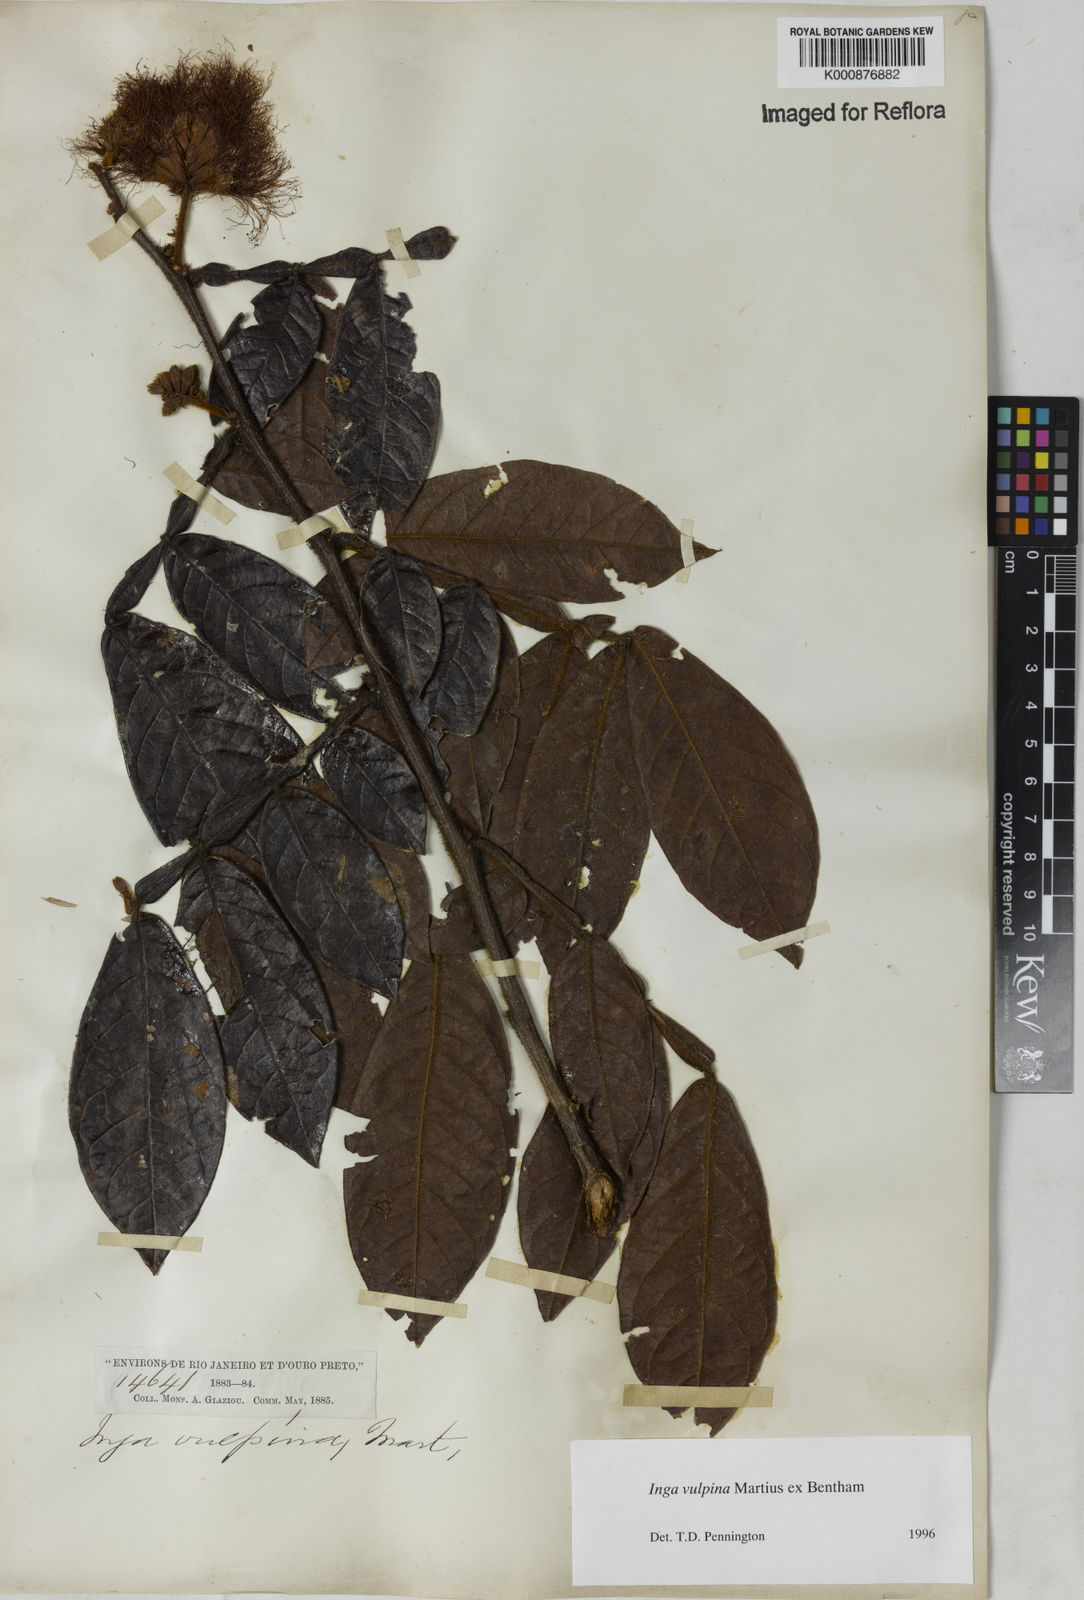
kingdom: Plantae
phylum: Tracheophyta
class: Magnoliopsida
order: Fabales
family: Fabaceae
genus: Inga
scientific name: Inga vulpina
